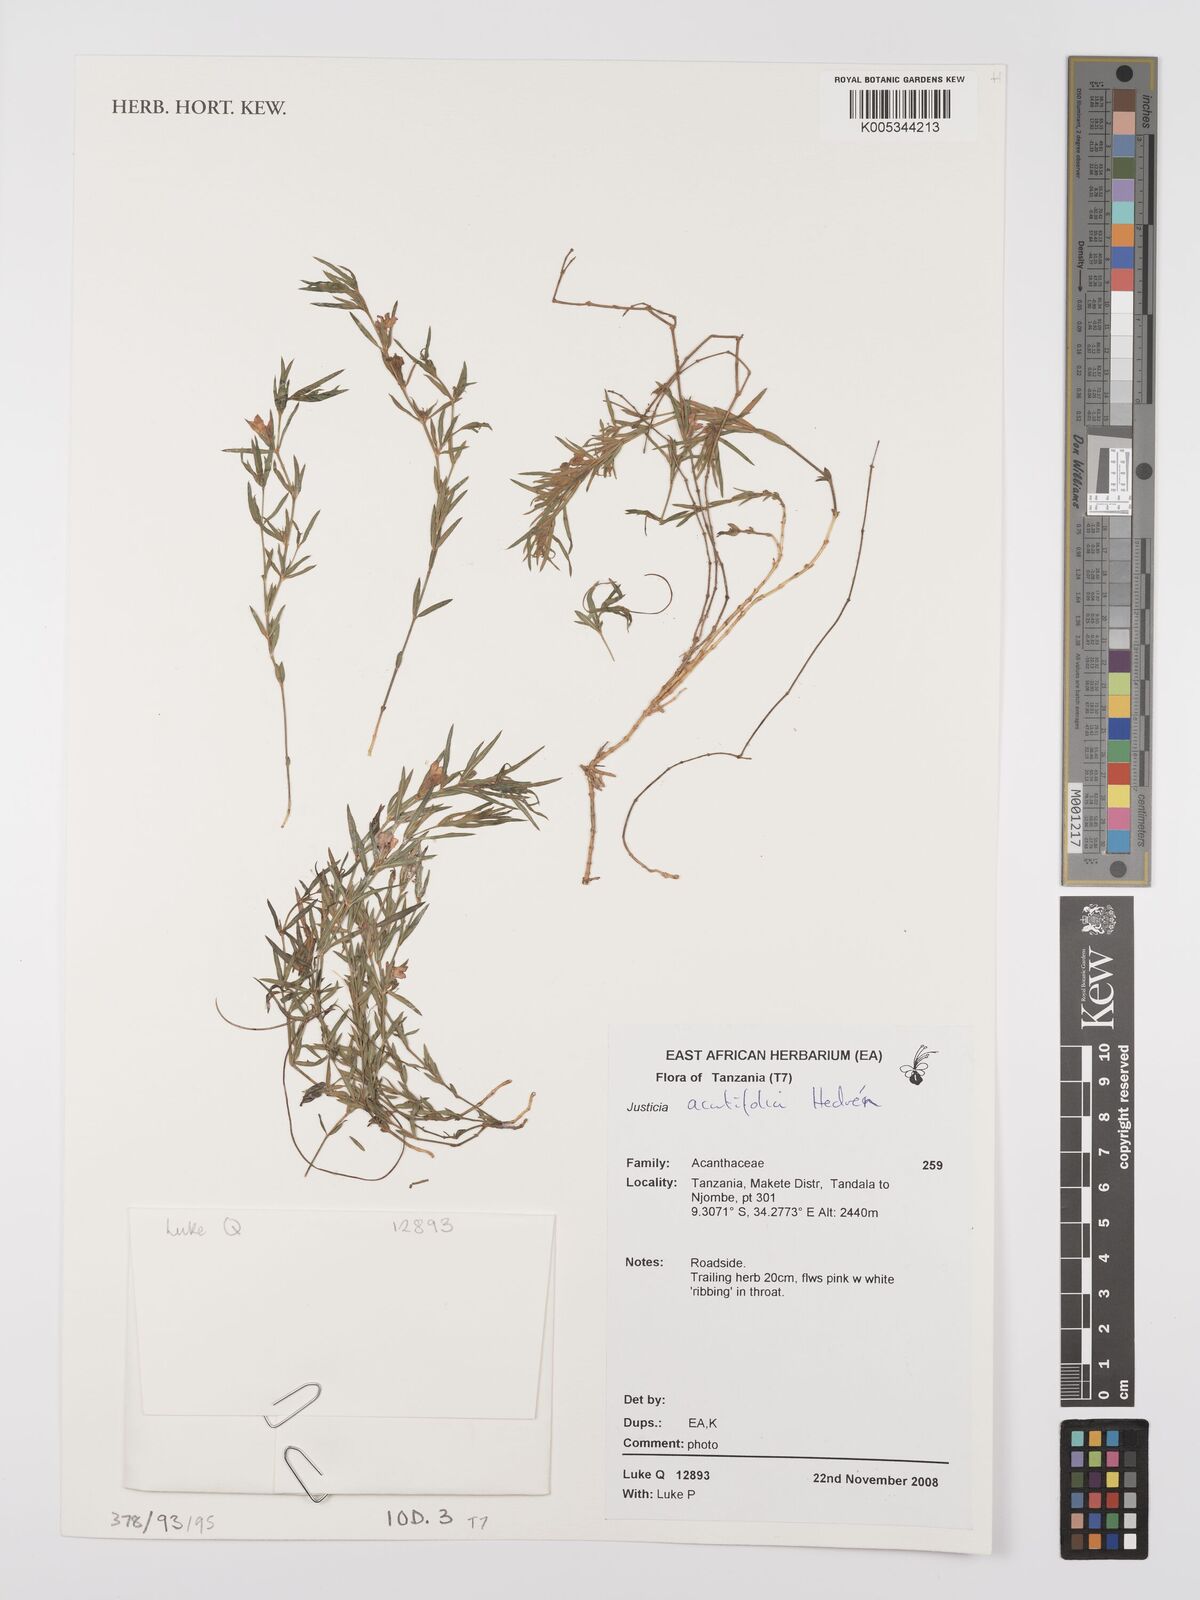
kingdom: Plantae
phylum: Tracheophyta
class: Magnoliopsida
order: Lamiales
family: Acanthaceae
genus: Justicia
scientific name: Justicia acutifolia
